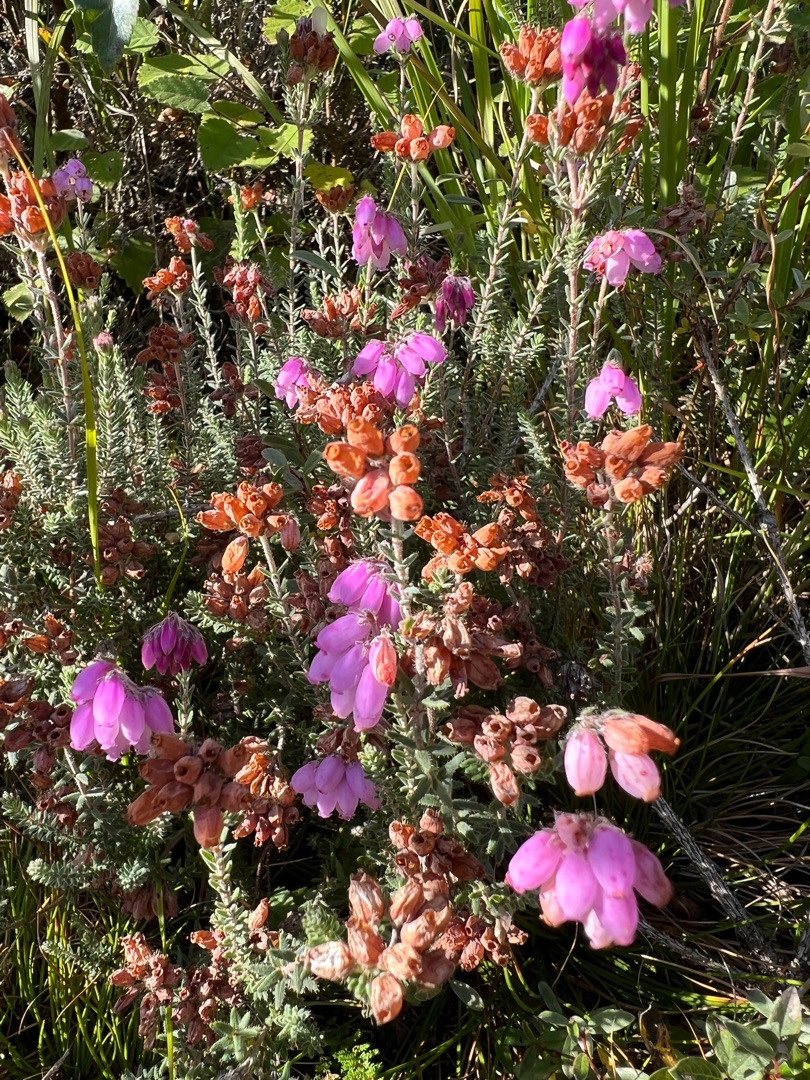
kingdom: Plantae
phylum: Tracheophyta
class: Magnoliopsida
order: Ericales
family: Ericaceae
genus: Erica
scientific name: Erica tetralix
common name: Klokkelyng
